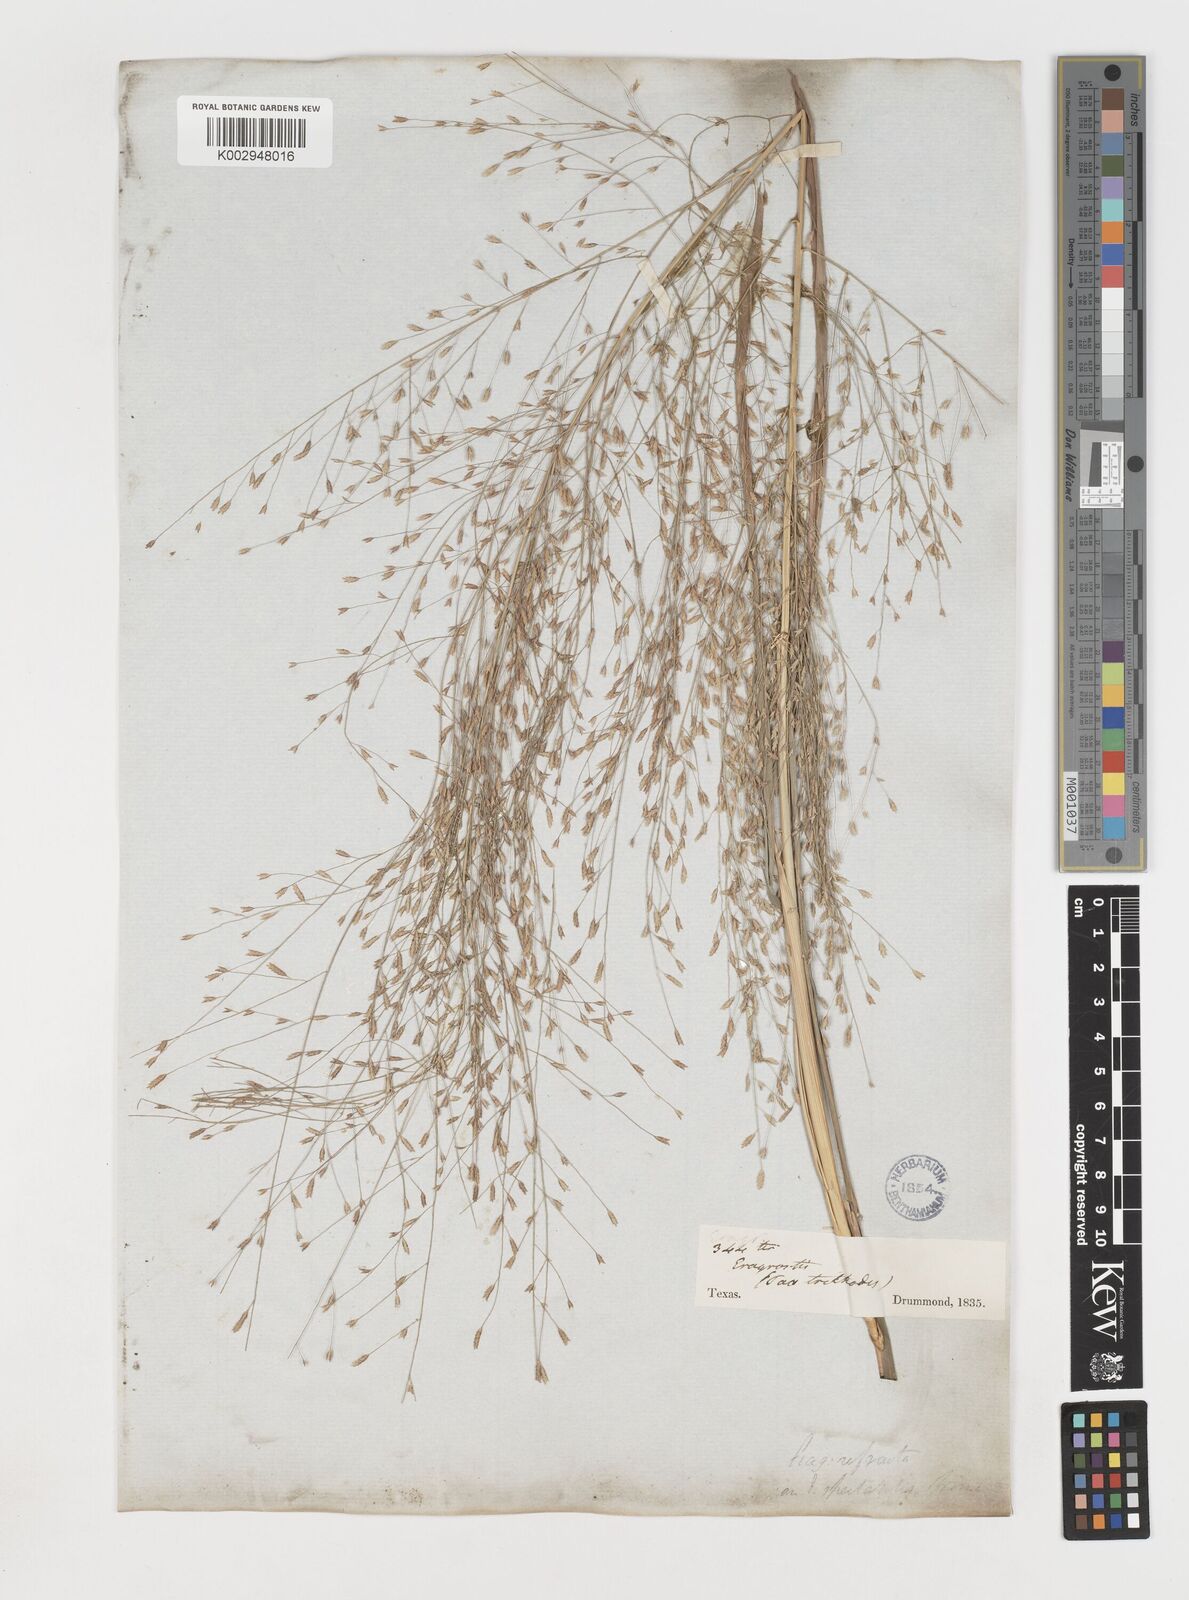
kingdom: Plantae
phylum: Tracheophyta
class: Liliopsida
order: Poales
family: Poaceae
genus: Eragrostis
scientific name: Eragrostis spectabilis
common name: Petticoat-climber
